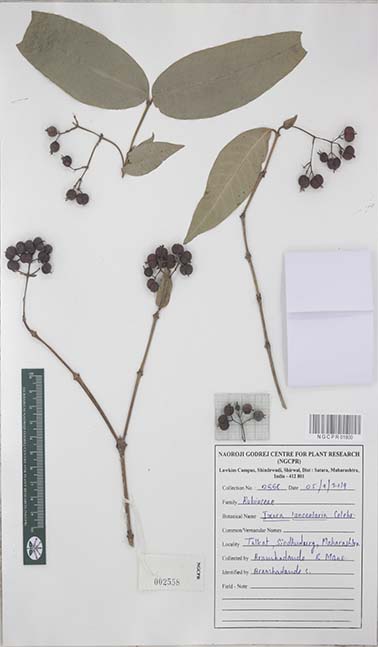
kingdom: Plantae
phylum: Tracheophyta
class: Magnoliopsida
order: Gentianales
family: Rubiaceae
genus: Ixora
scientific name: Ixora malabarica
